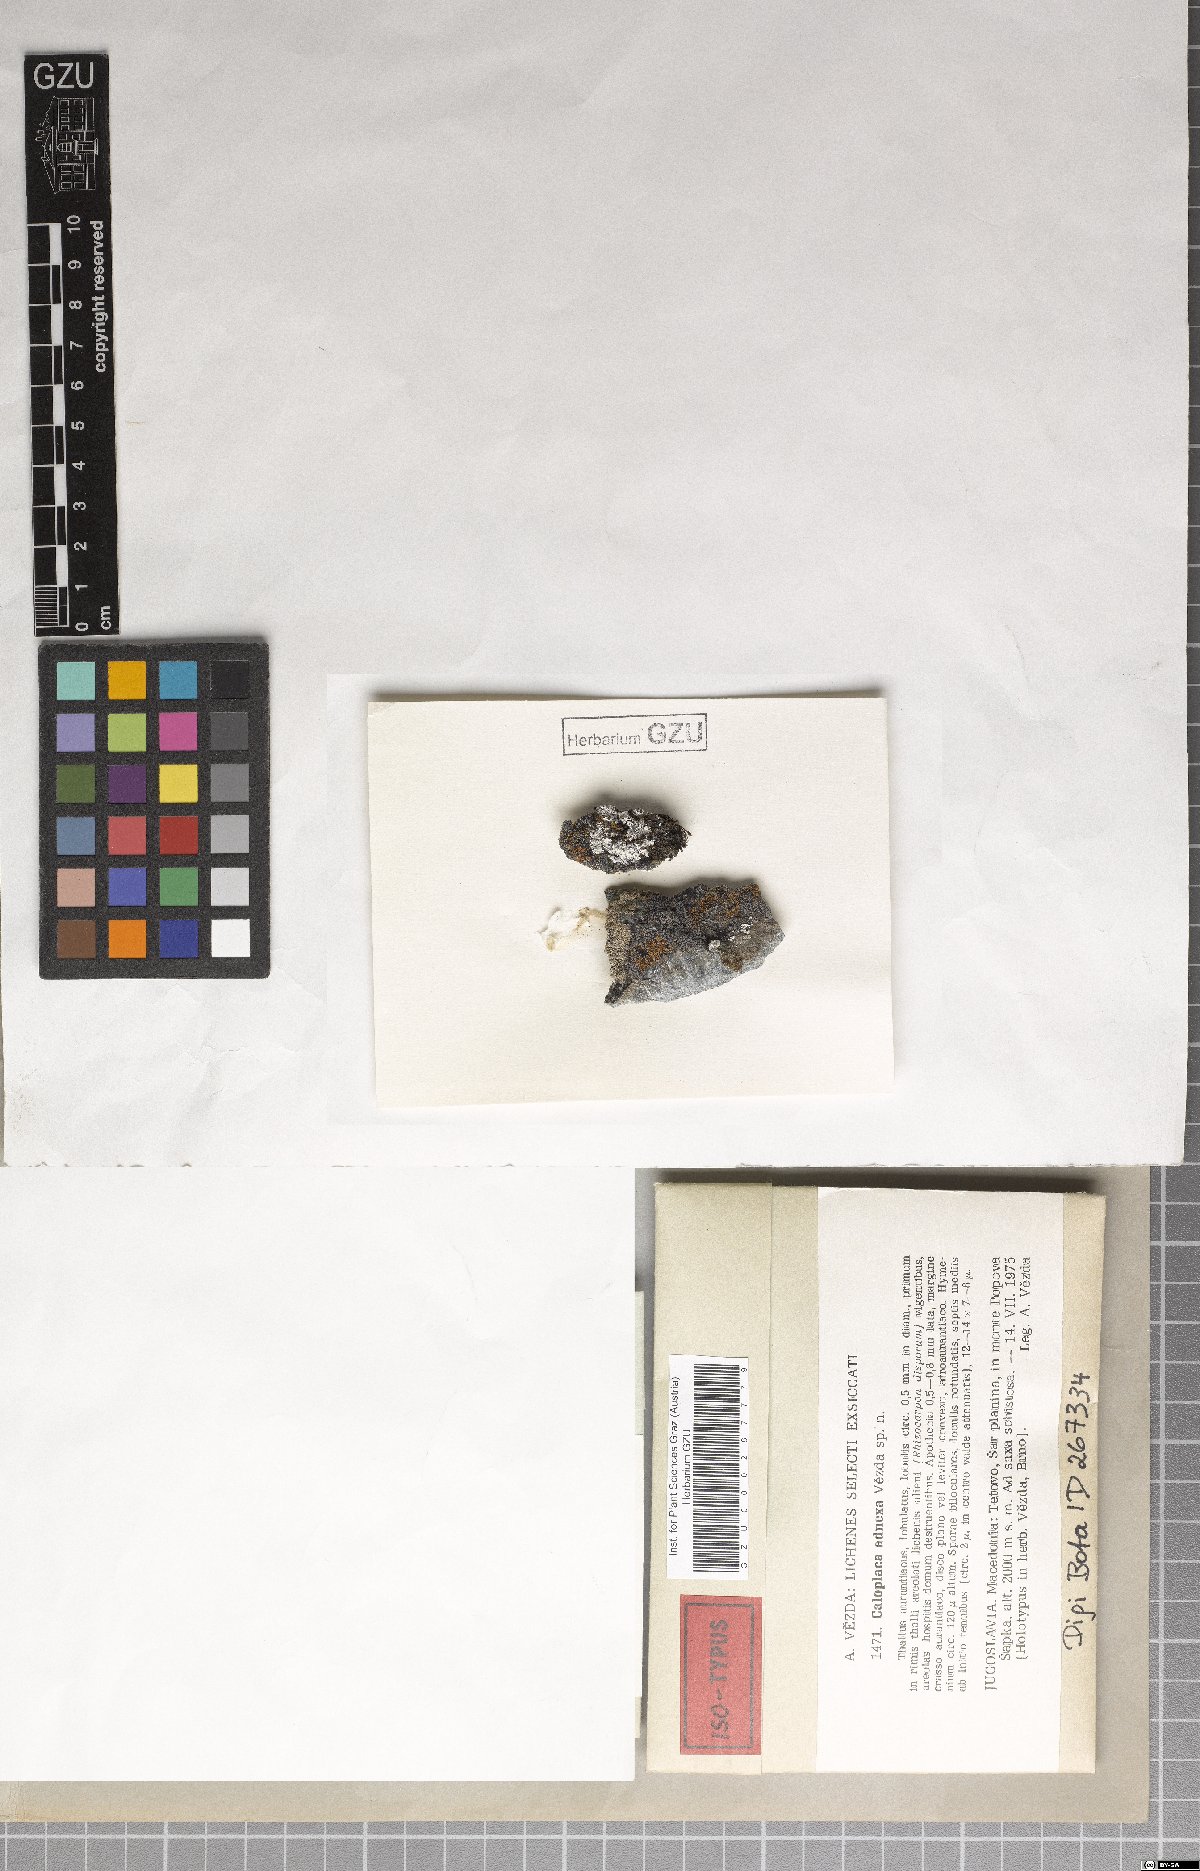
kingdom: Fungi
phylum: Ascomycota
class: Lecanoromycetes
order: Teloschistales
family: Teloschistaceae
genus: Caloplaca
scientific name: Caloplaca adnexa
